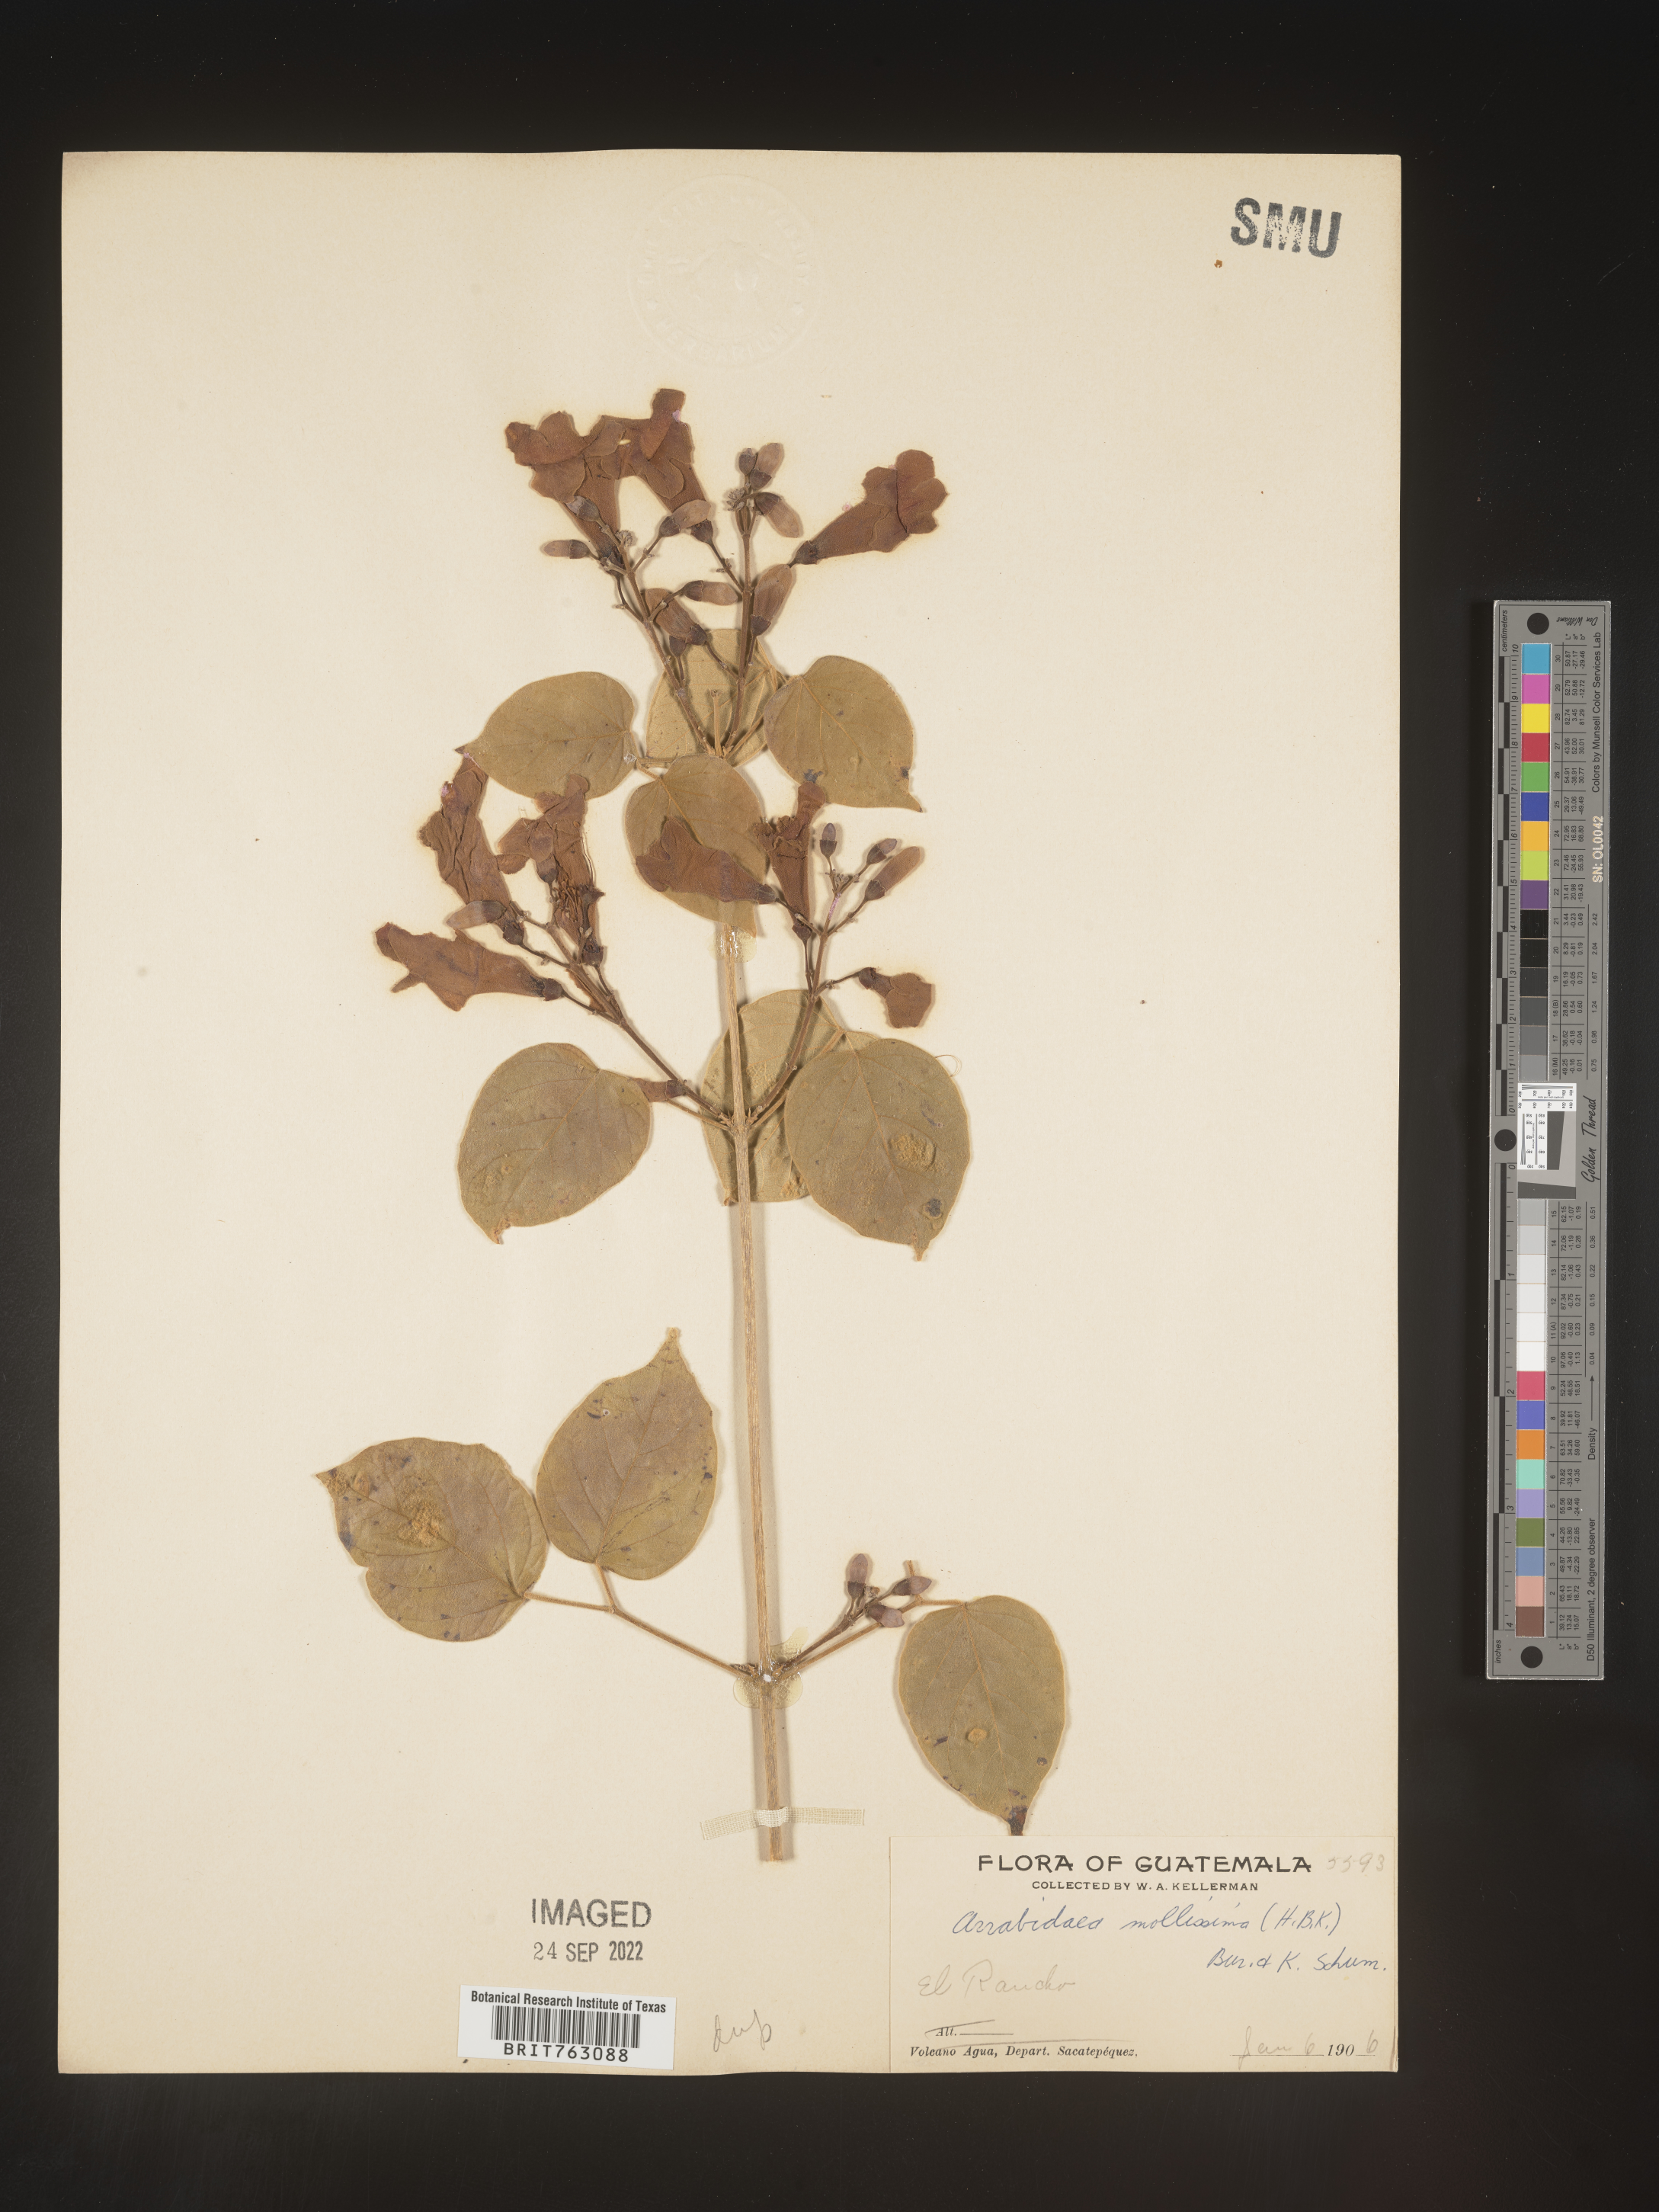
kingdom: Plantae
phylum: Tracheophyta
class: Magnoliopsida
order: Rosales
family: Rhamnaceae
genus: Arrabidaea
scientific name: Arrabidaea
